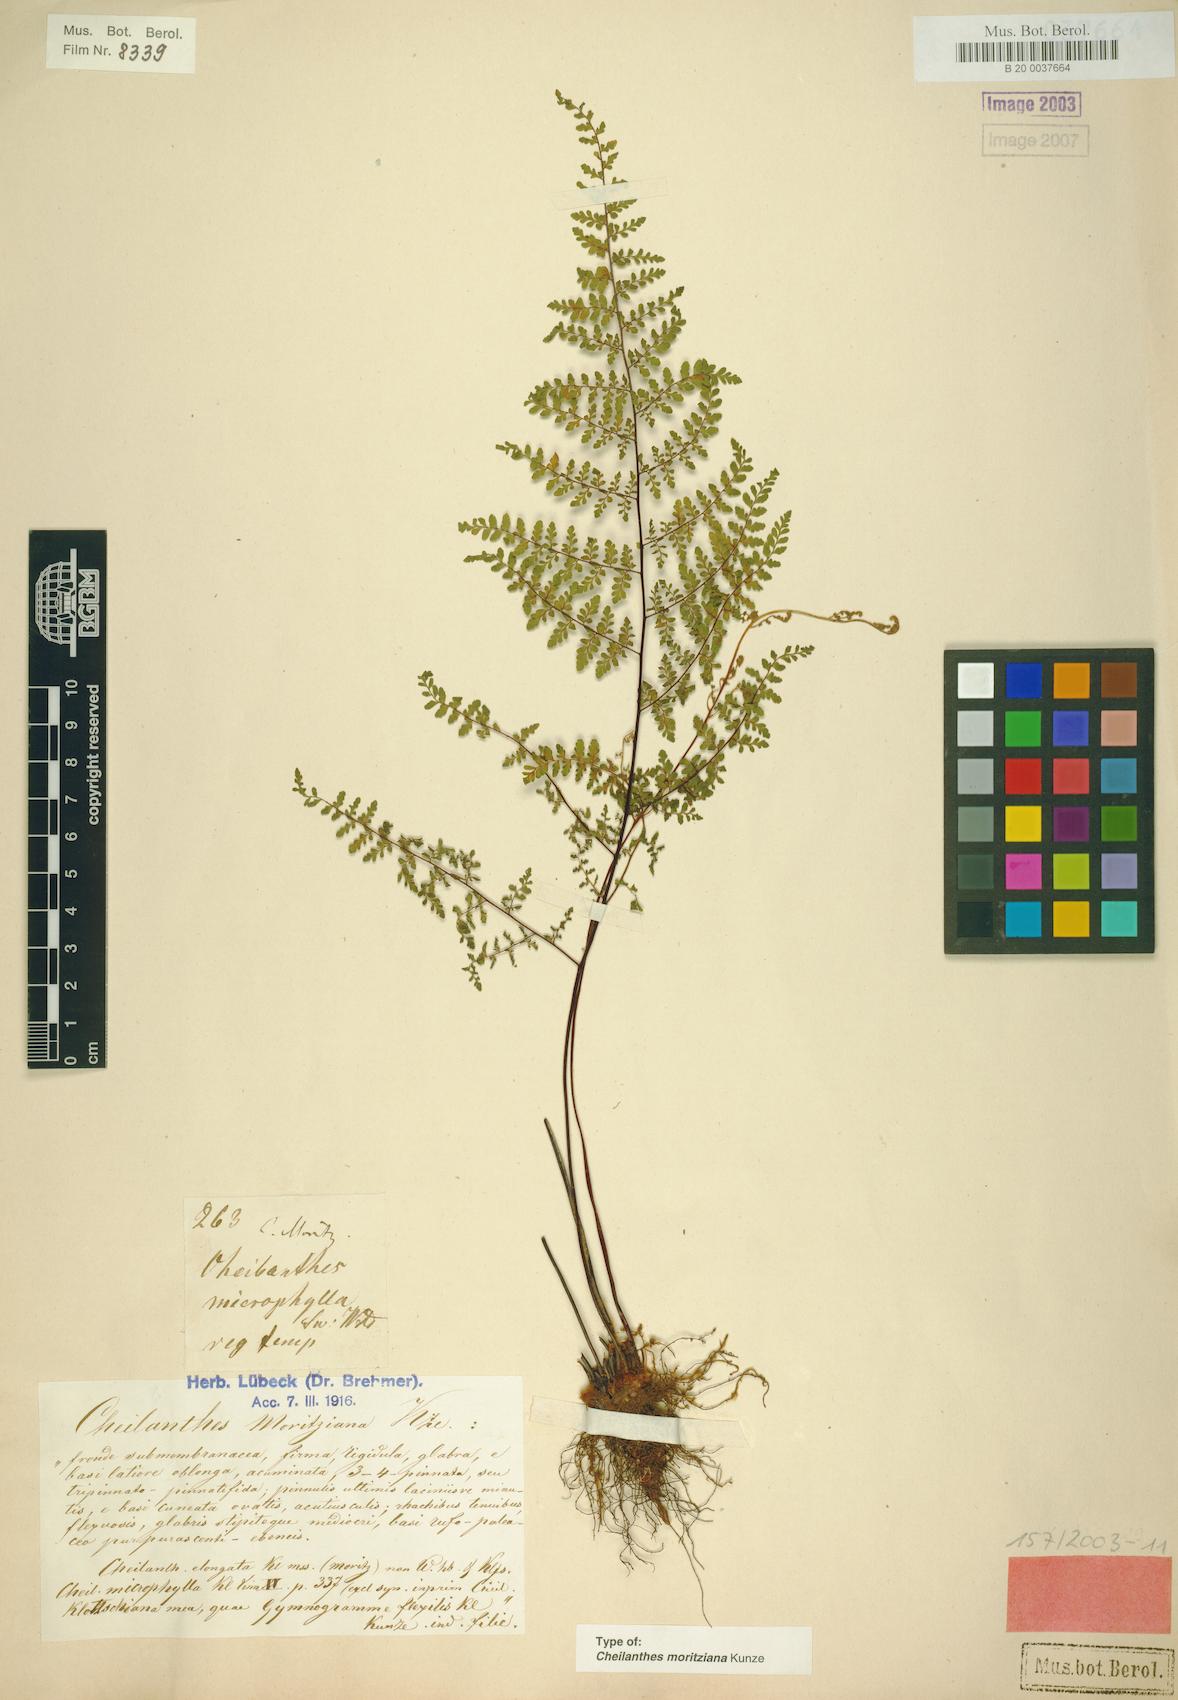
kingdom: Plantae
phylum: Tracheophyta
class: Polypodiopsida
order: Polypodiales
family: Pteridaceae
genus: Myriopteris
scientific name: Myriopteris moritziana
